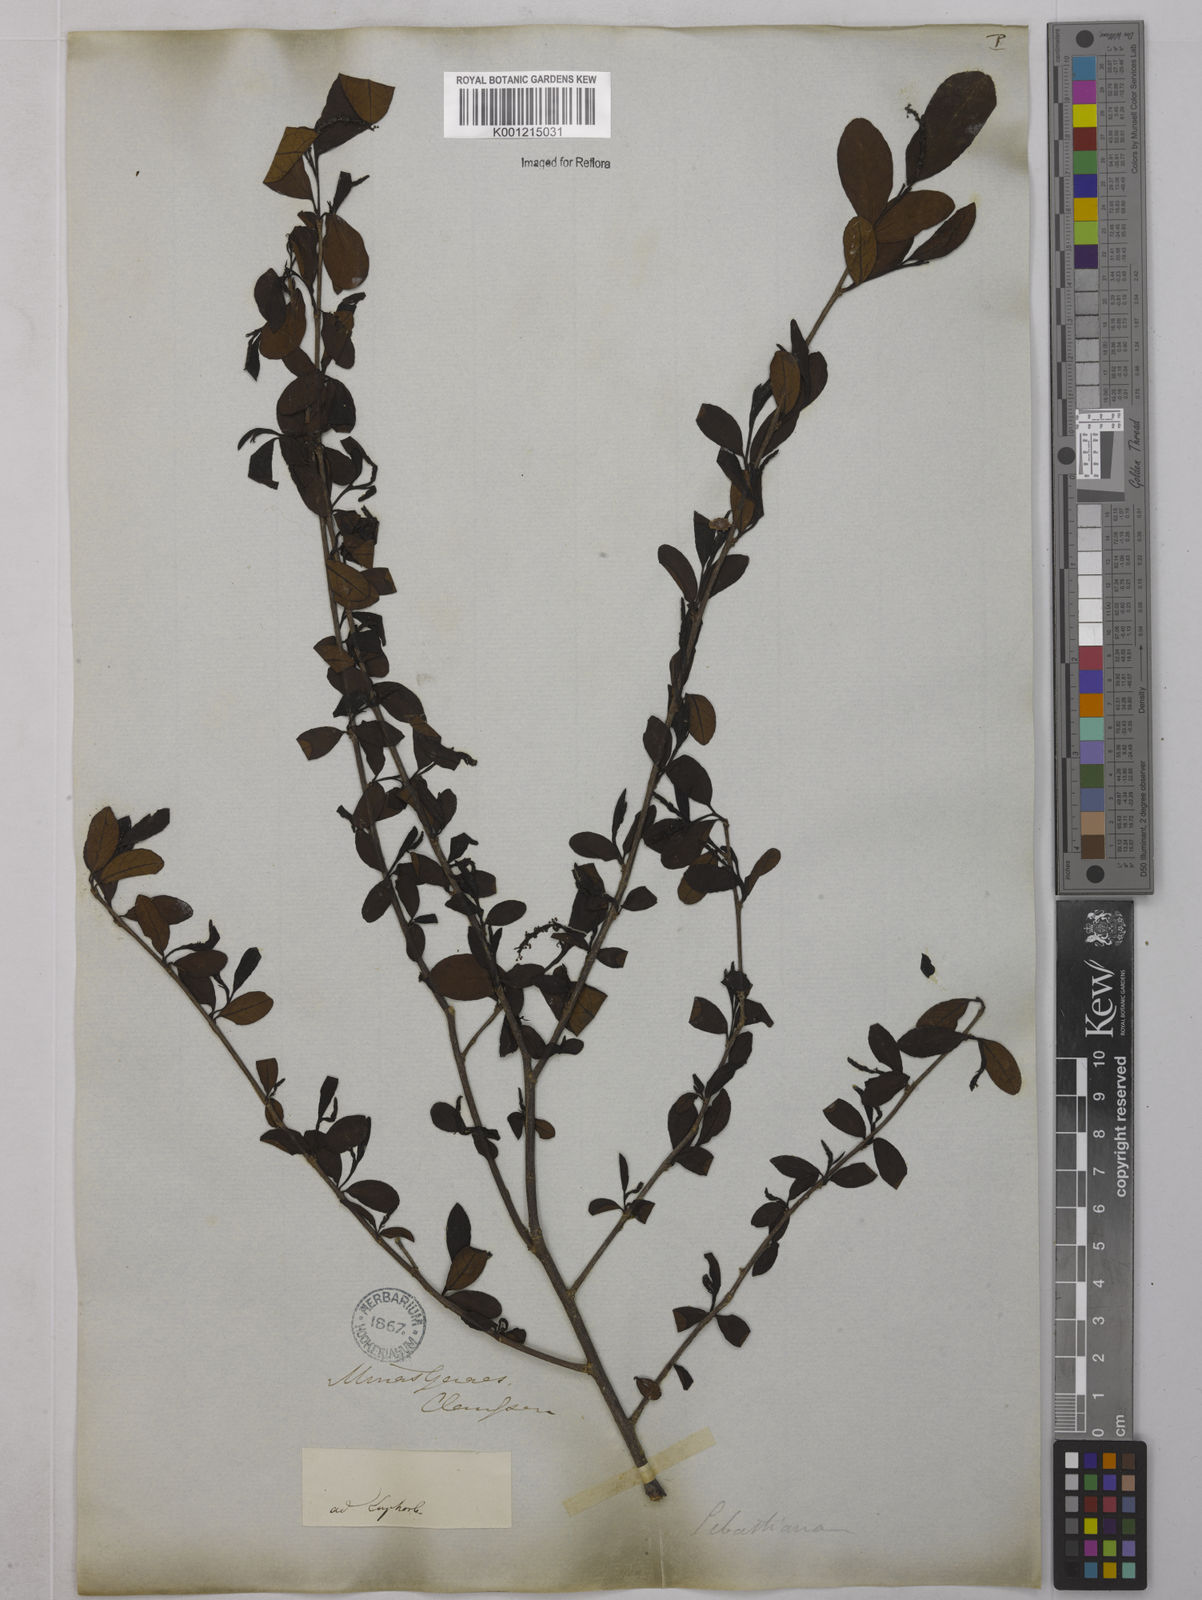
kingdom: Plantae
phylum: Tracheophyta
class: Magnoliopsida
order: Malpighiales
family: Euphorbiaceae
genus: Sebastiania
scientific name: Sebastiania brasiliensis
